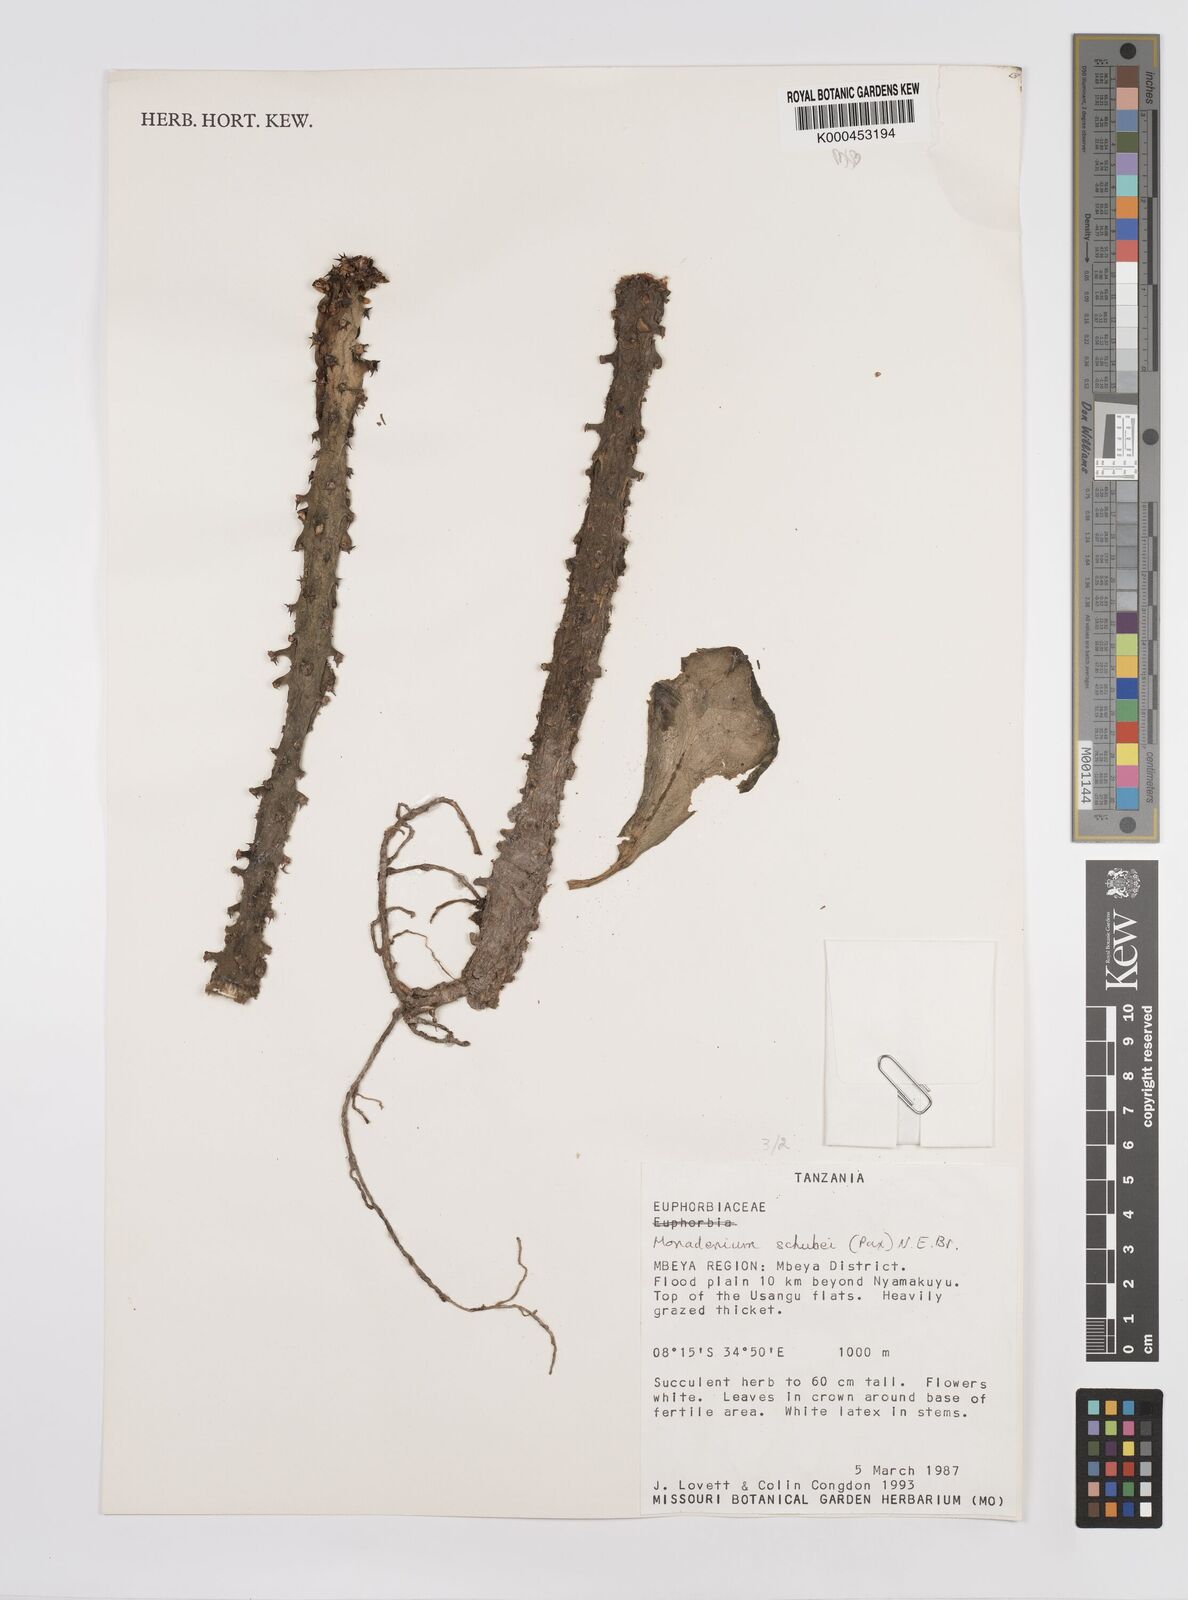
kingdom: Plantae
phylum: Tracheophyta
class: Magnoliopsida
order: Malpighiales
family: Euphorbiaceae
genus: Euphorbia
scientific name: Euphorbia schubei
